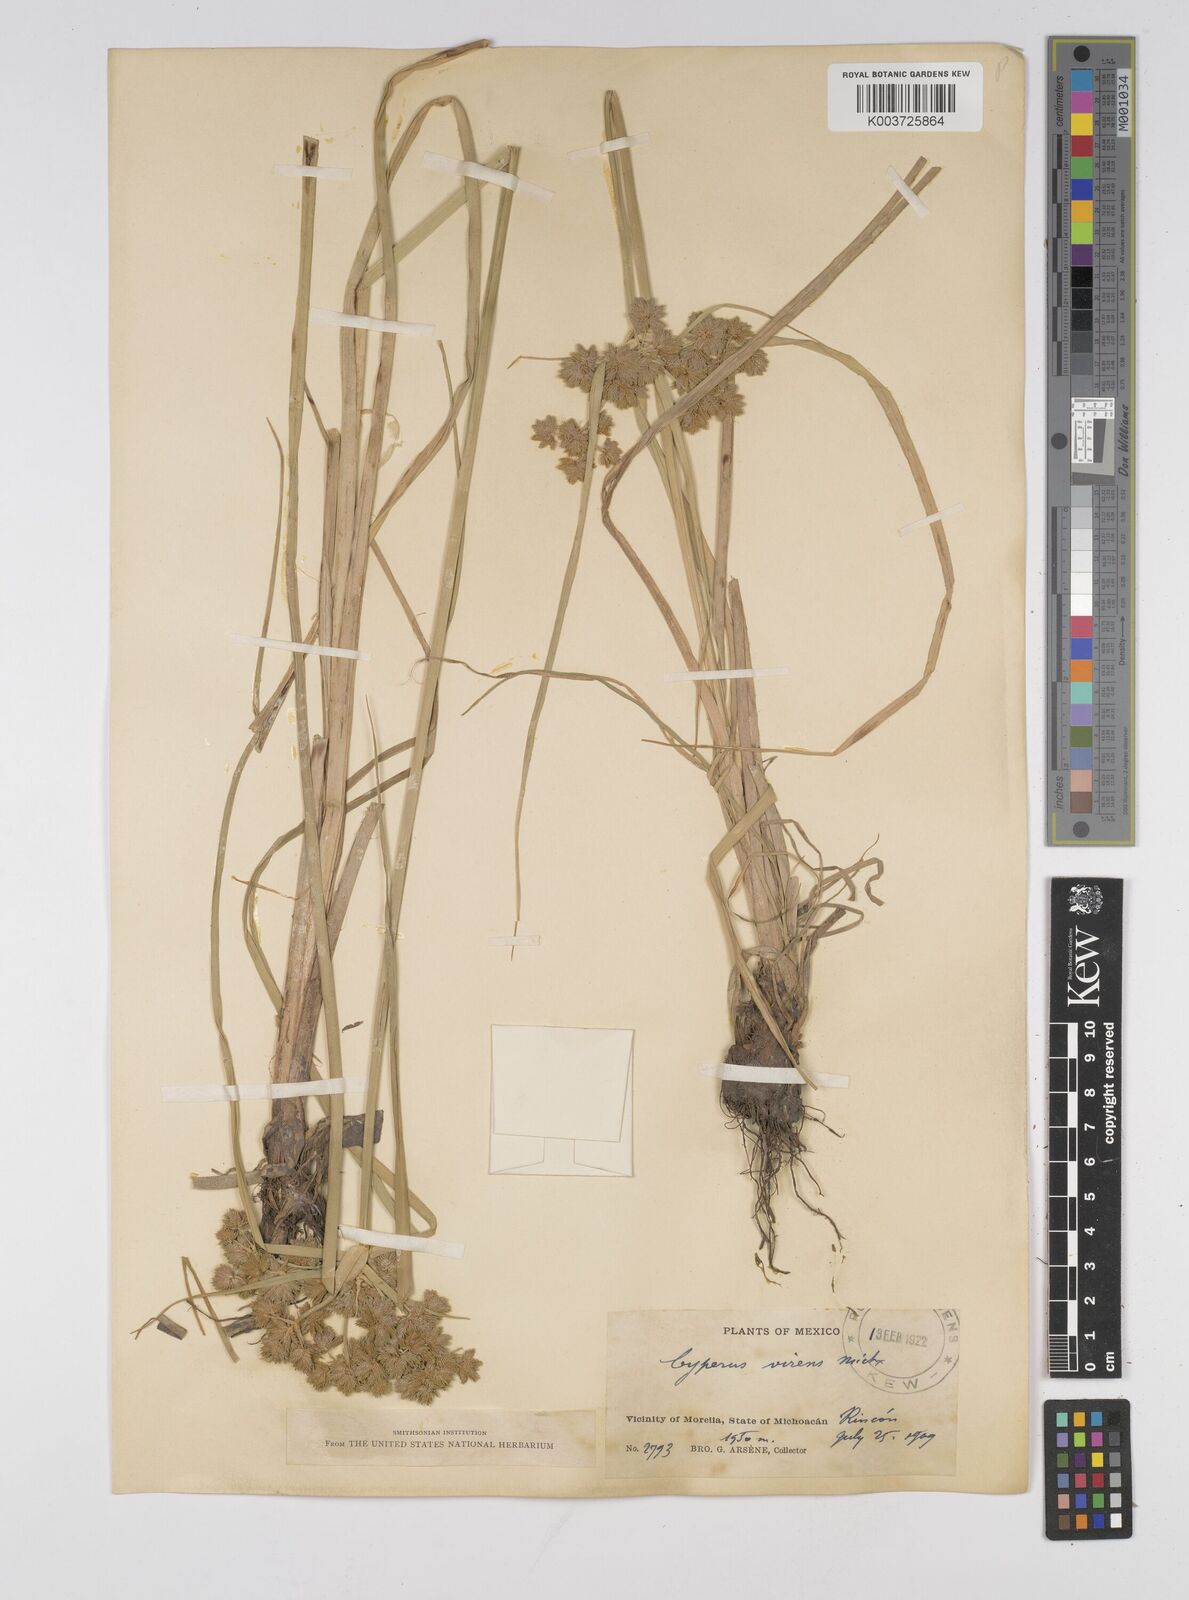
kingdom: Plantae
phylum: Tracheophyta
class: Liliopsida
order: Poales
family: Cyperaceae
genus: Cyperus
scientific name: Cyperus virens
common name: Green flatsedge
